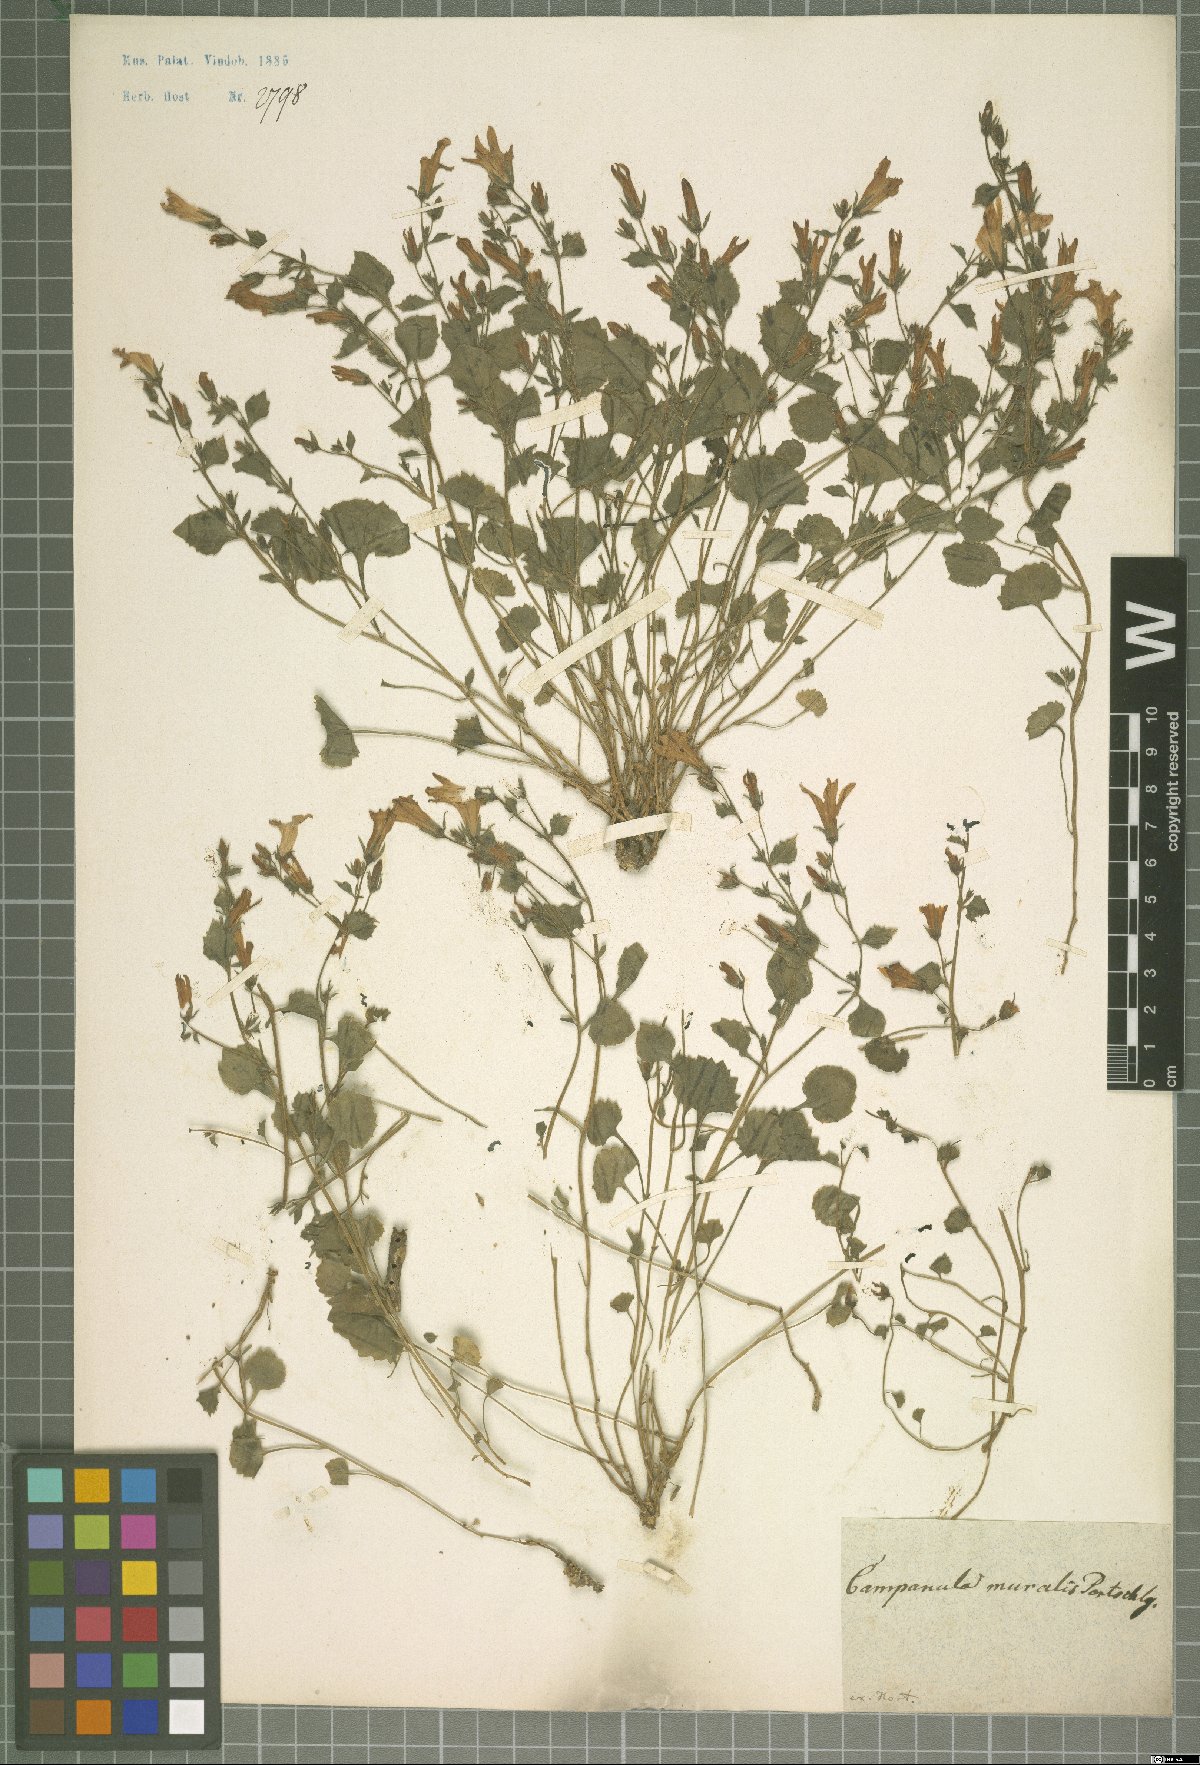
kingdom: Plantae
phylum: Tracheophyta
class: Magnoliopsida
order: Asterales
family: Campanulaceae
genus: Campanula
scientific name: Campanula portenschlagiana
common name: Adria bellflower
